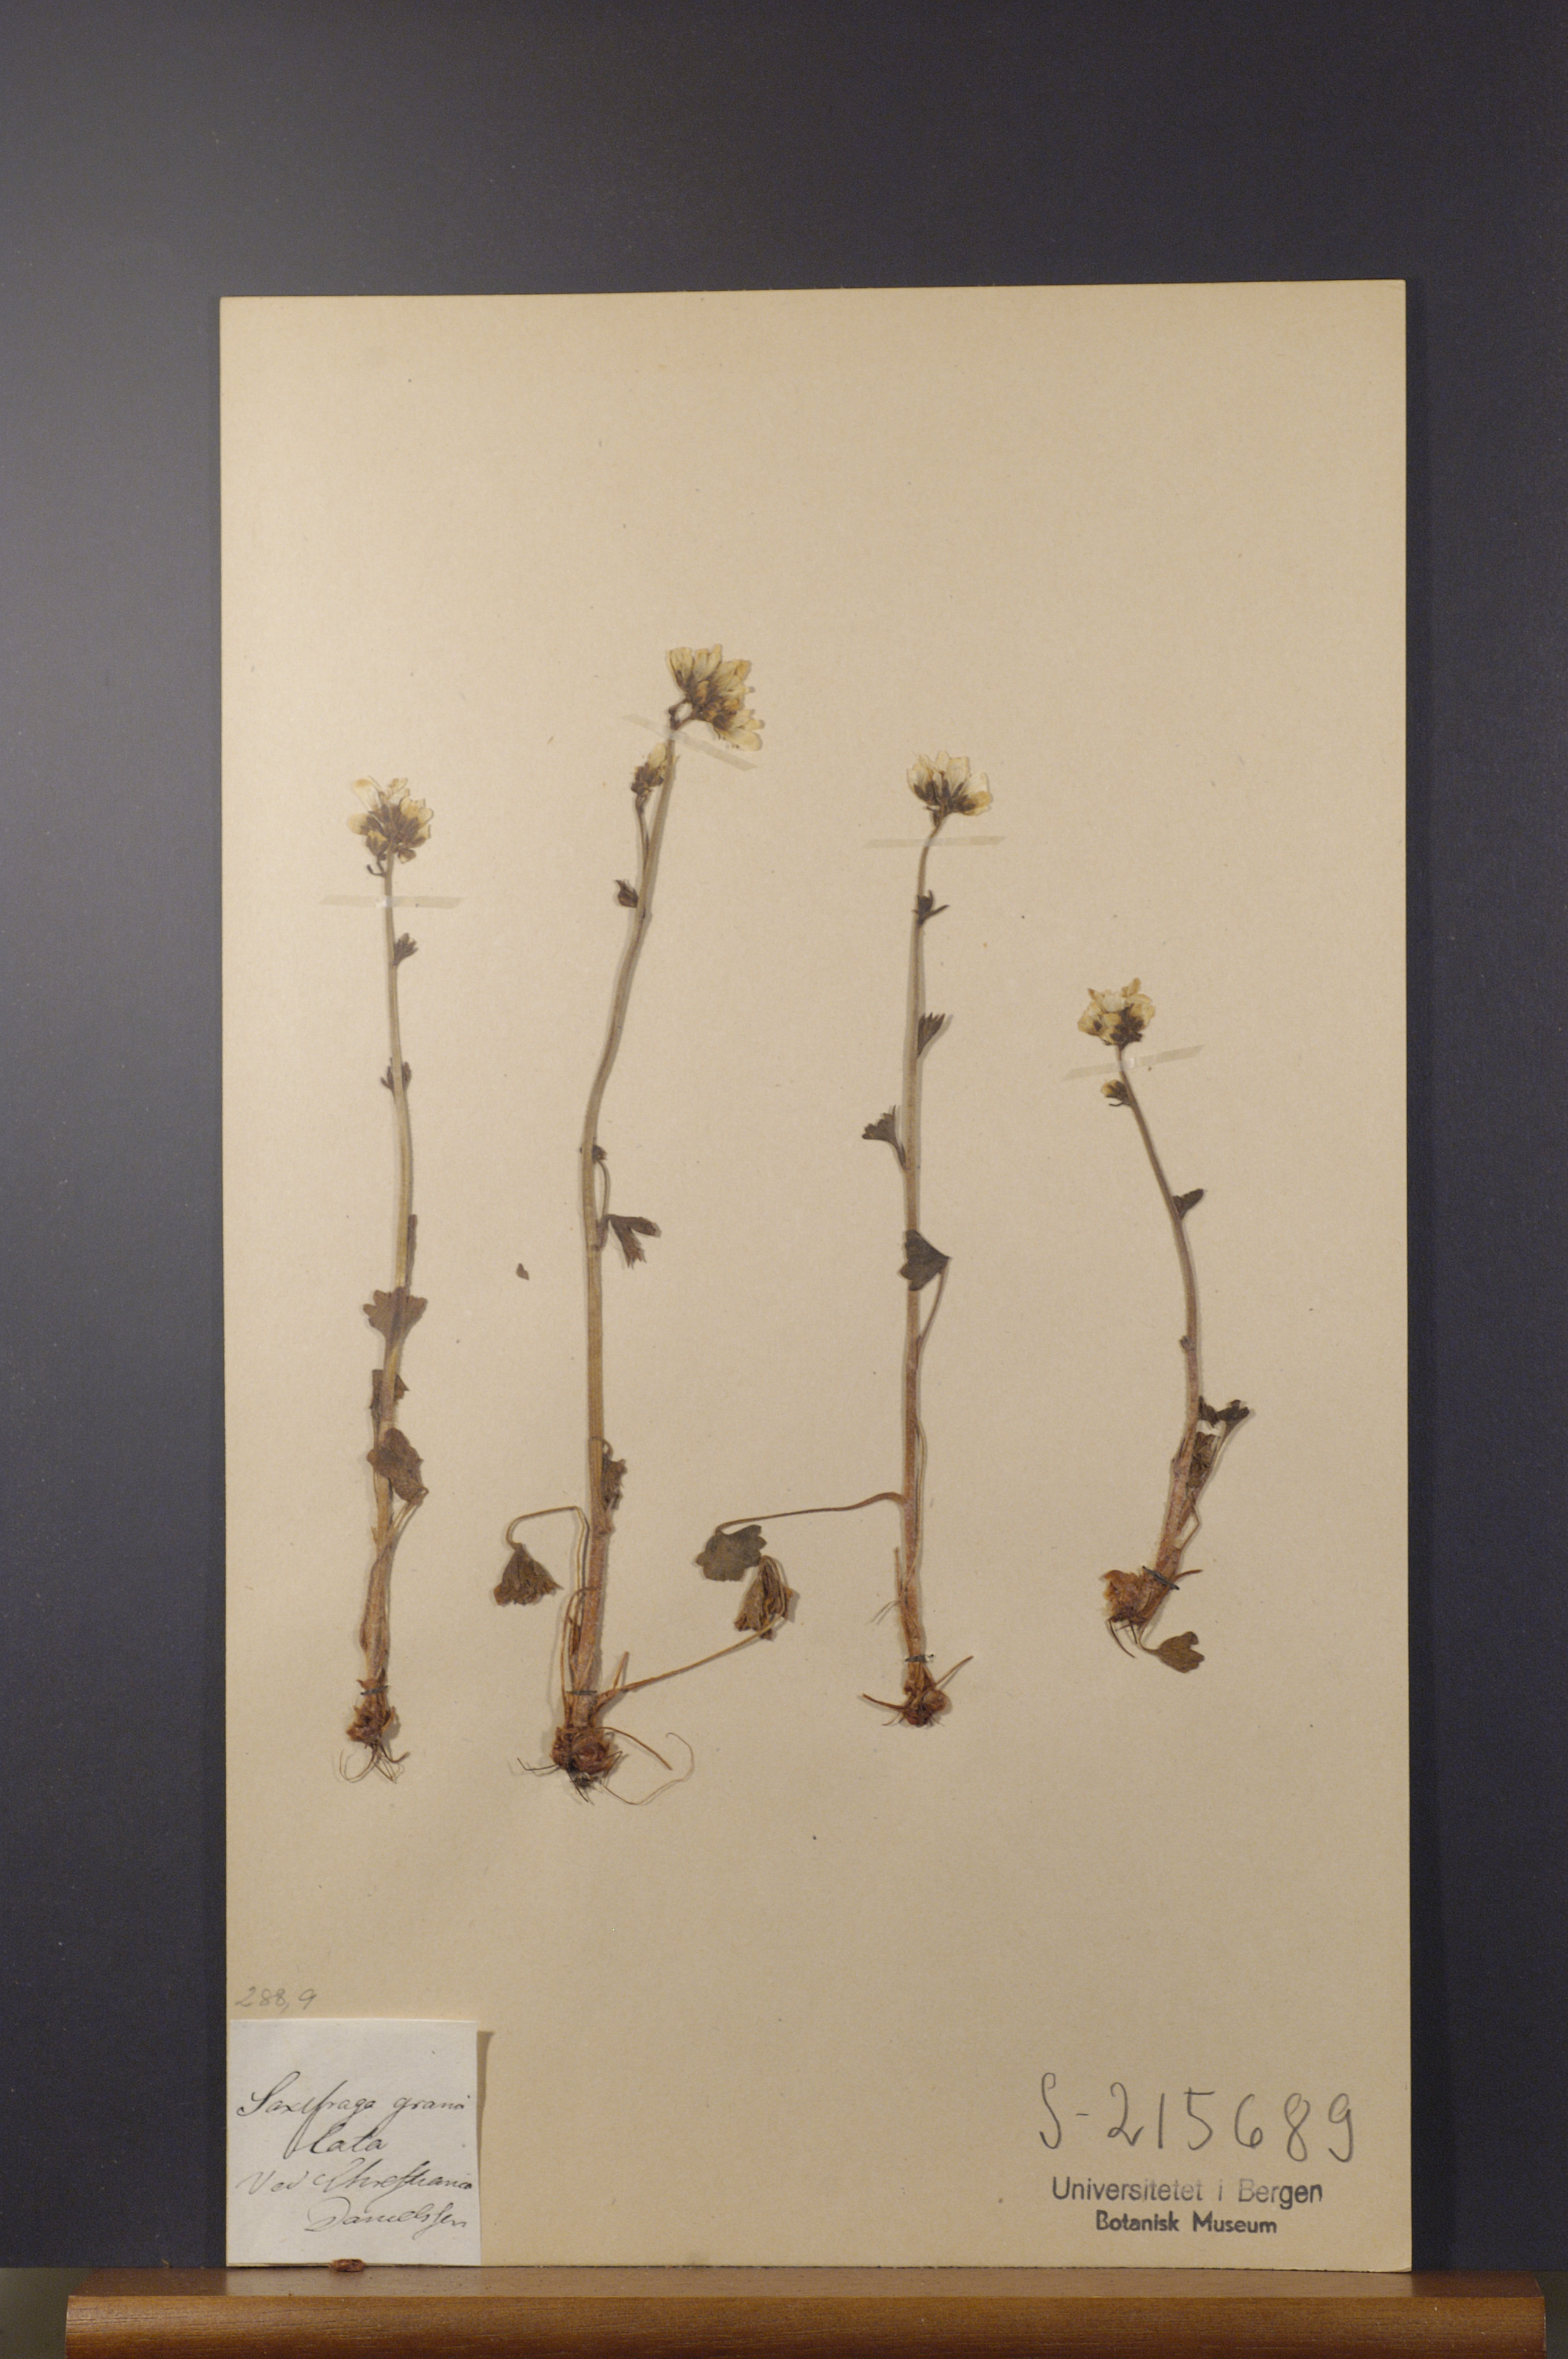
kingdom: Plantae
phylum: Tracheophyta
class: Magnoliopsida
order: Saxifragales
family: Saxifragaceae
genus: Saxifraga
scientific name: Saxifraga granulata
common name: Meadow saxifrage
